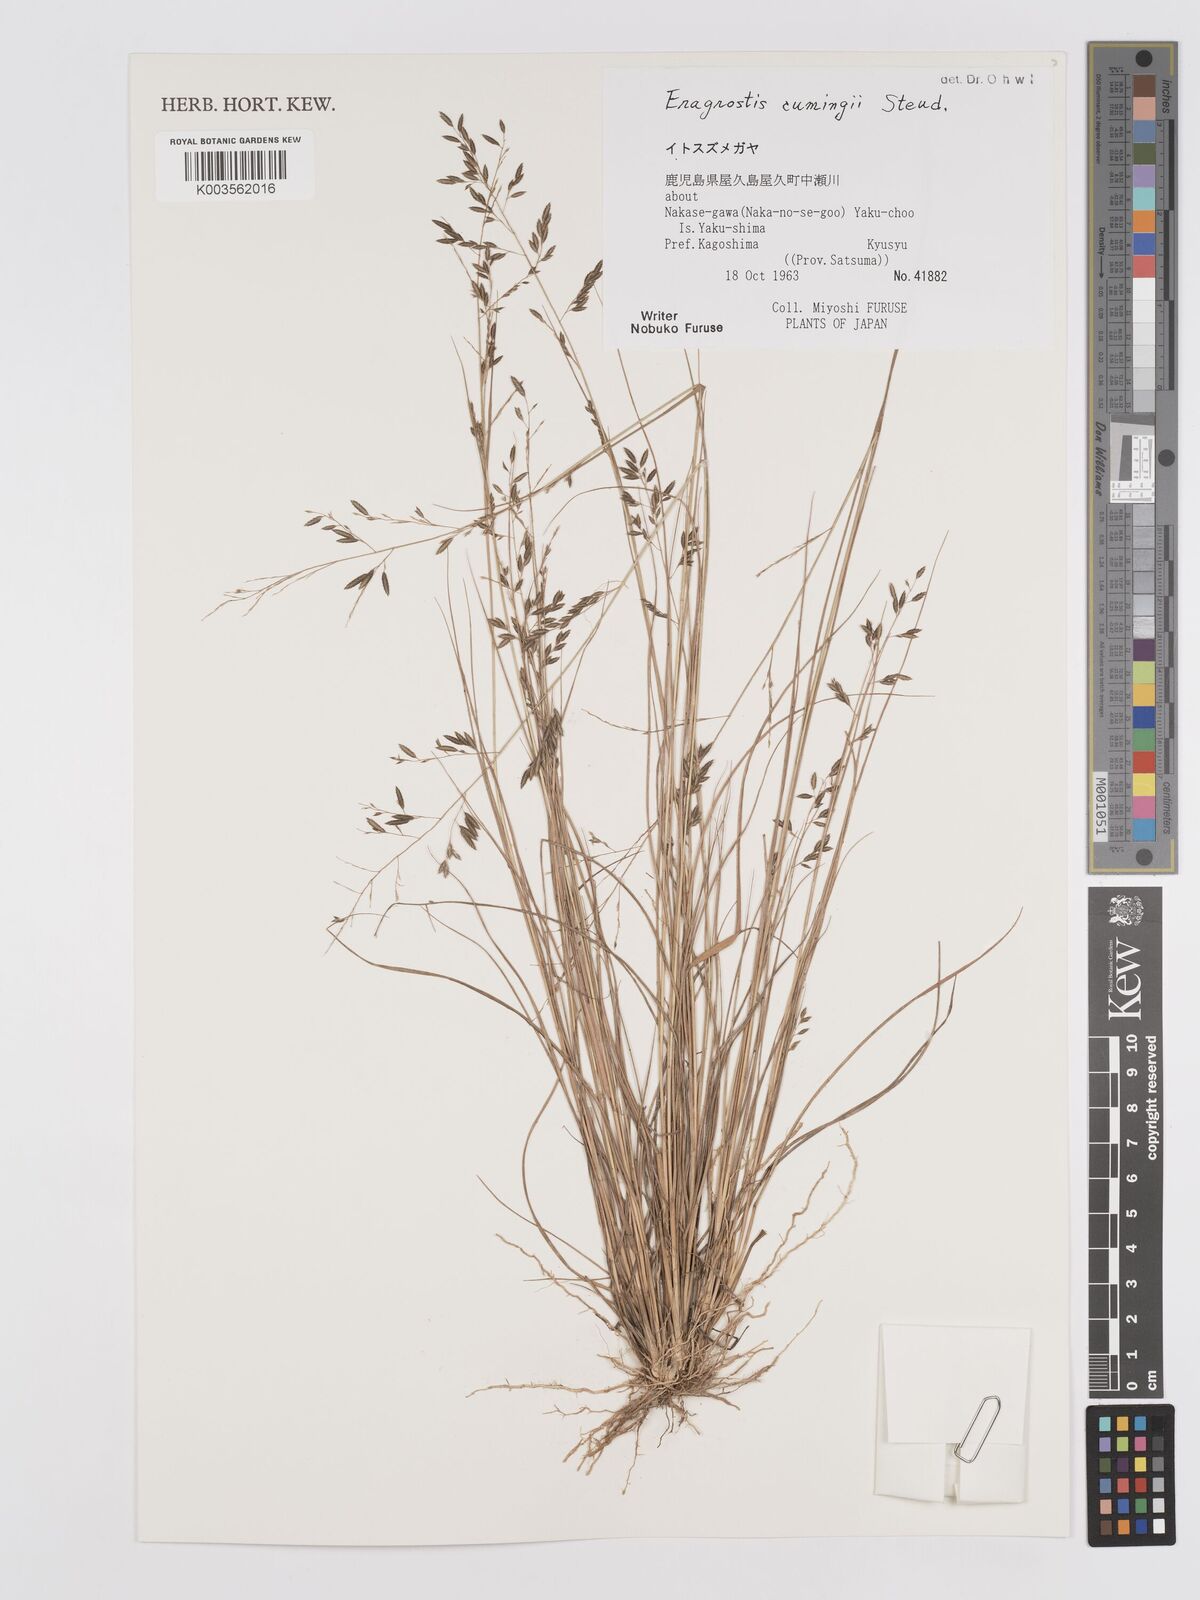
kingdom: Plantae
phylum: Tracheophyta
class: Liliopsida
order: Poales
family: Poaceae
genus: Eragrostis
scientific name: Eragrostis cumingii
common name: Cuming's lovegrass
